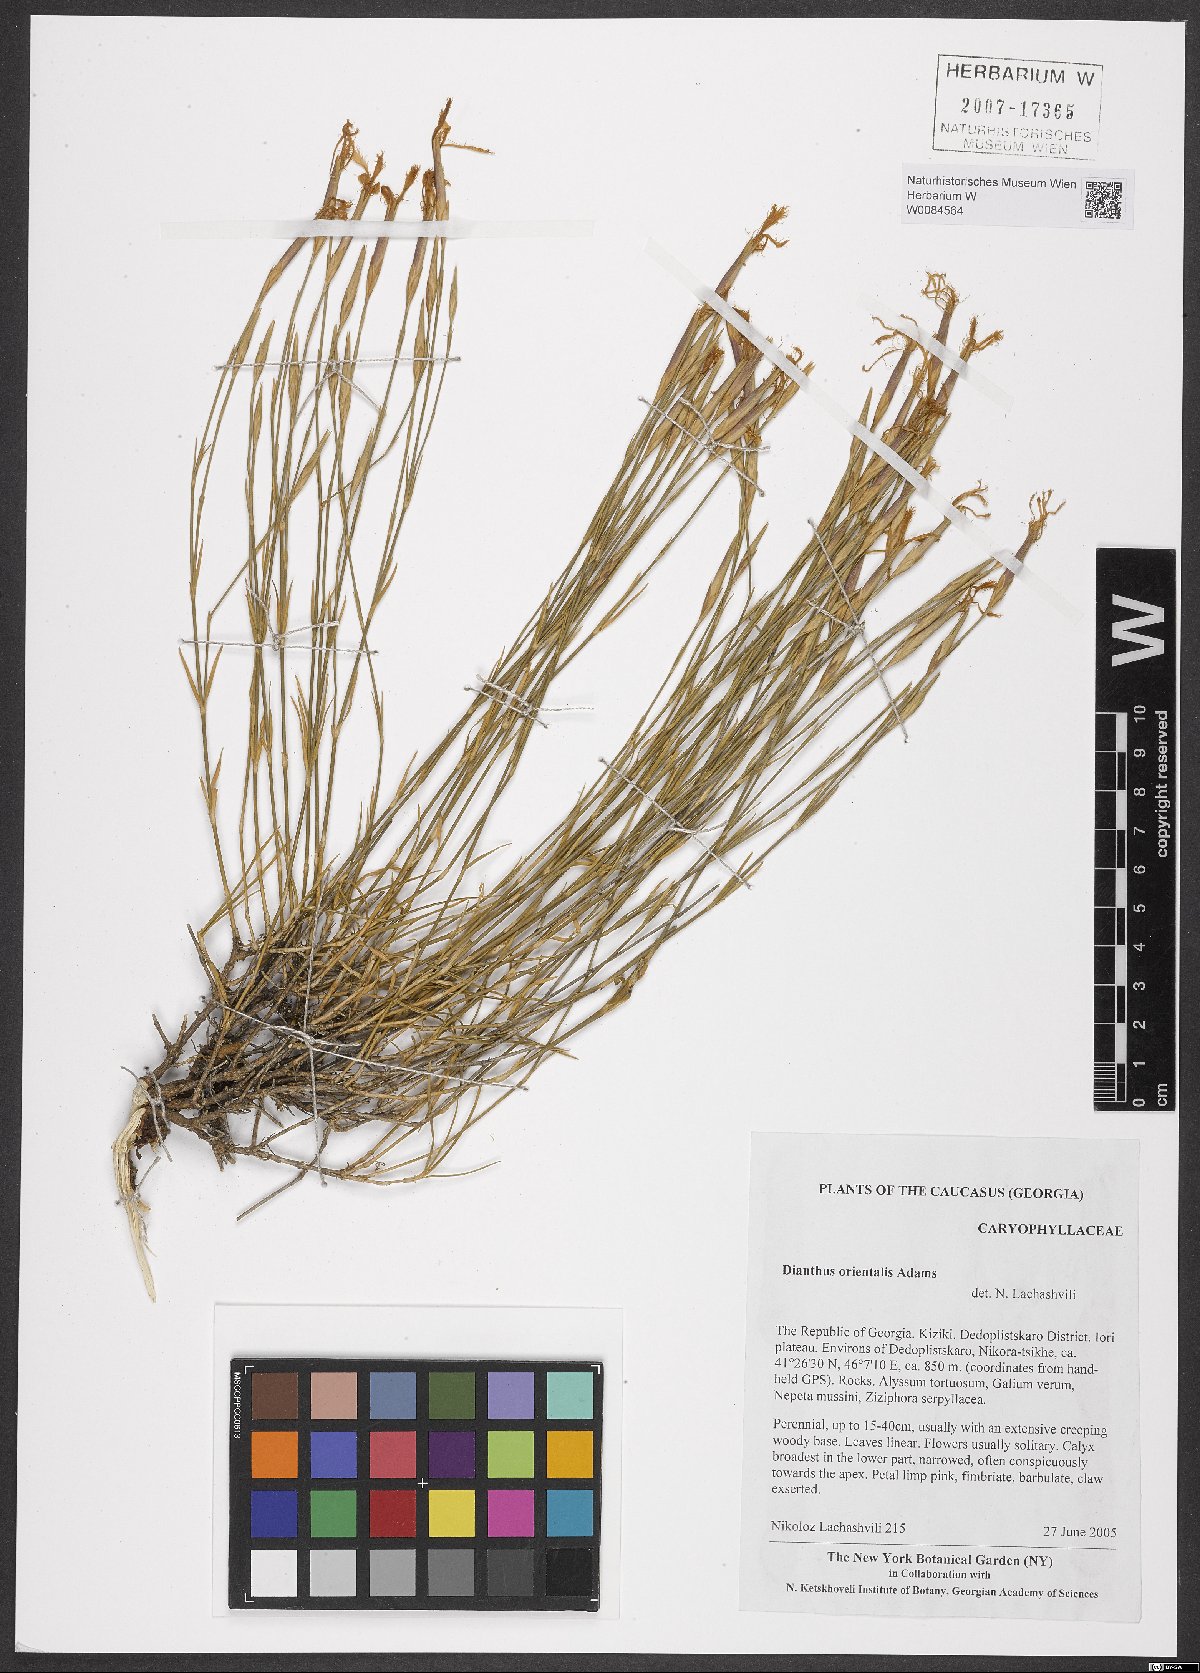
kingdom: Plantae
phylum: Tracheophyta
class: Magnoliopsida
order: Caryophyllales
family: Caryophyllaceae
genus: Dianthus
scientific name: Dianthus orientalis
